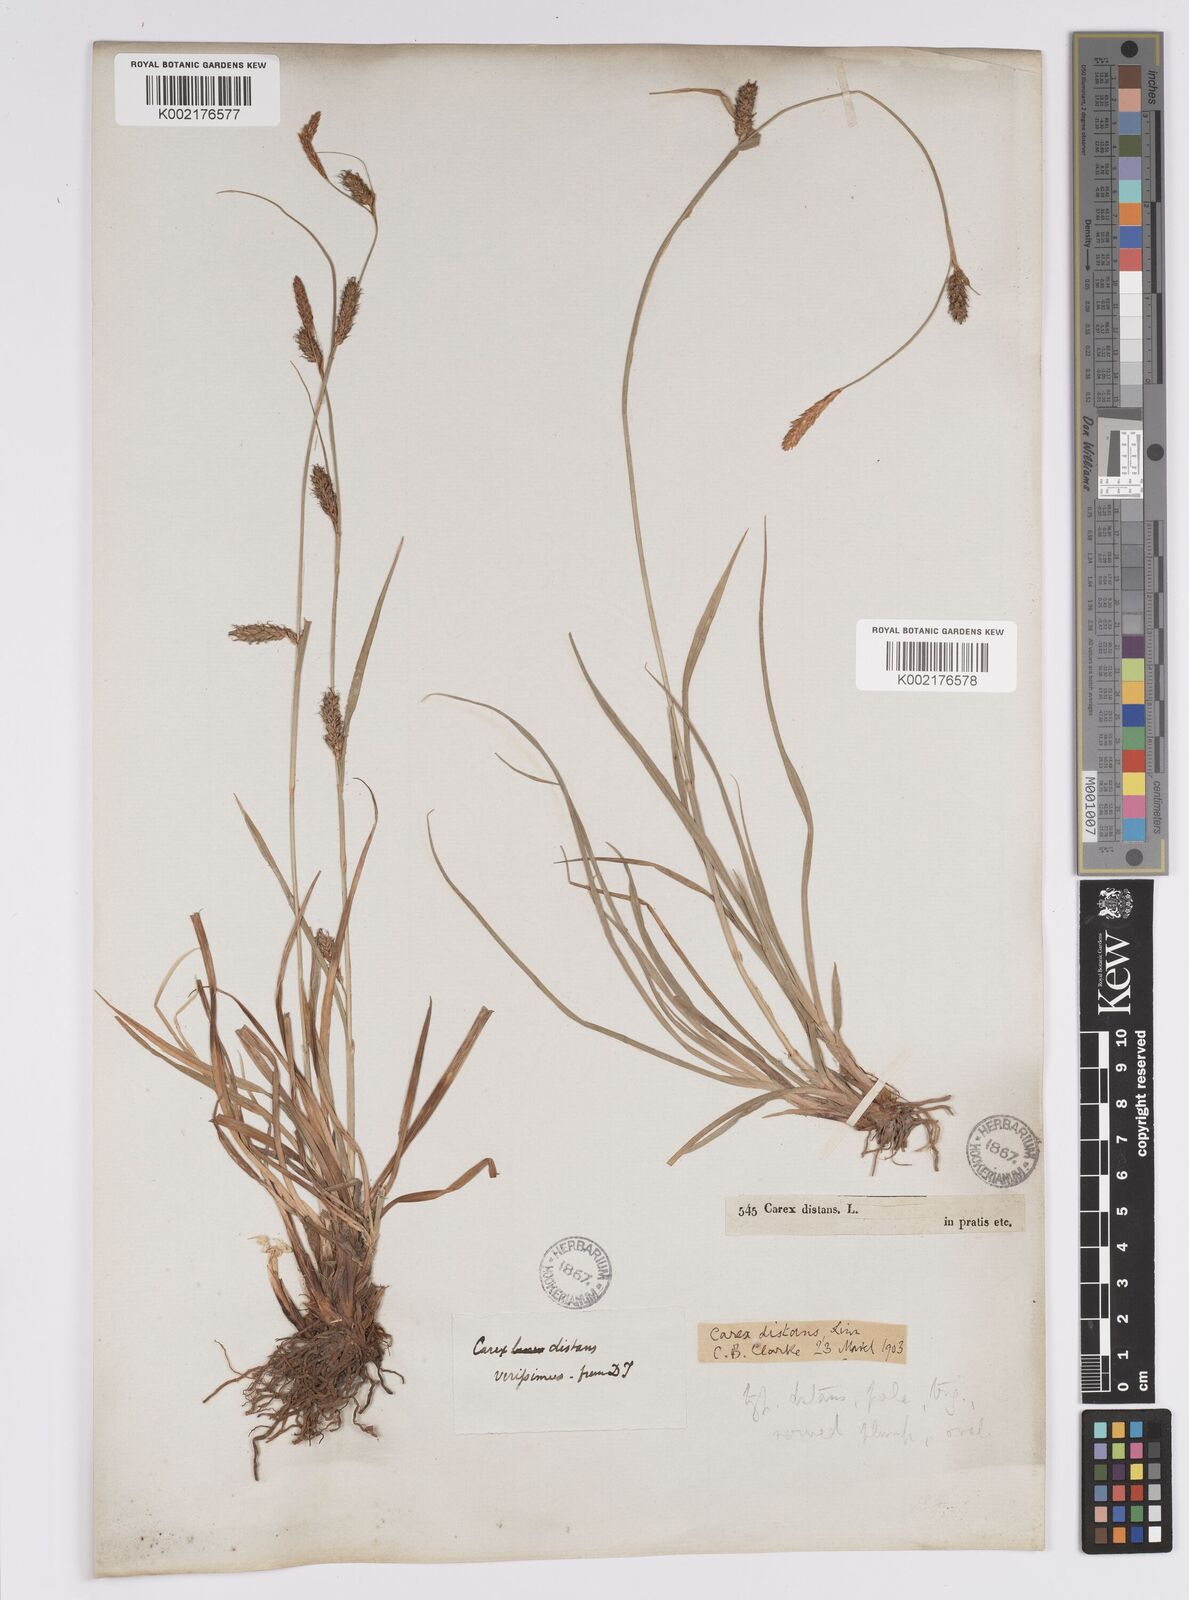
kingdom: Plantae
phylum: Tracheophyta
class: Liliopsida
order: Poales
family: Cyperaceae
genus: Carex
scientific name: Carex distans
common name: Distant sedge
